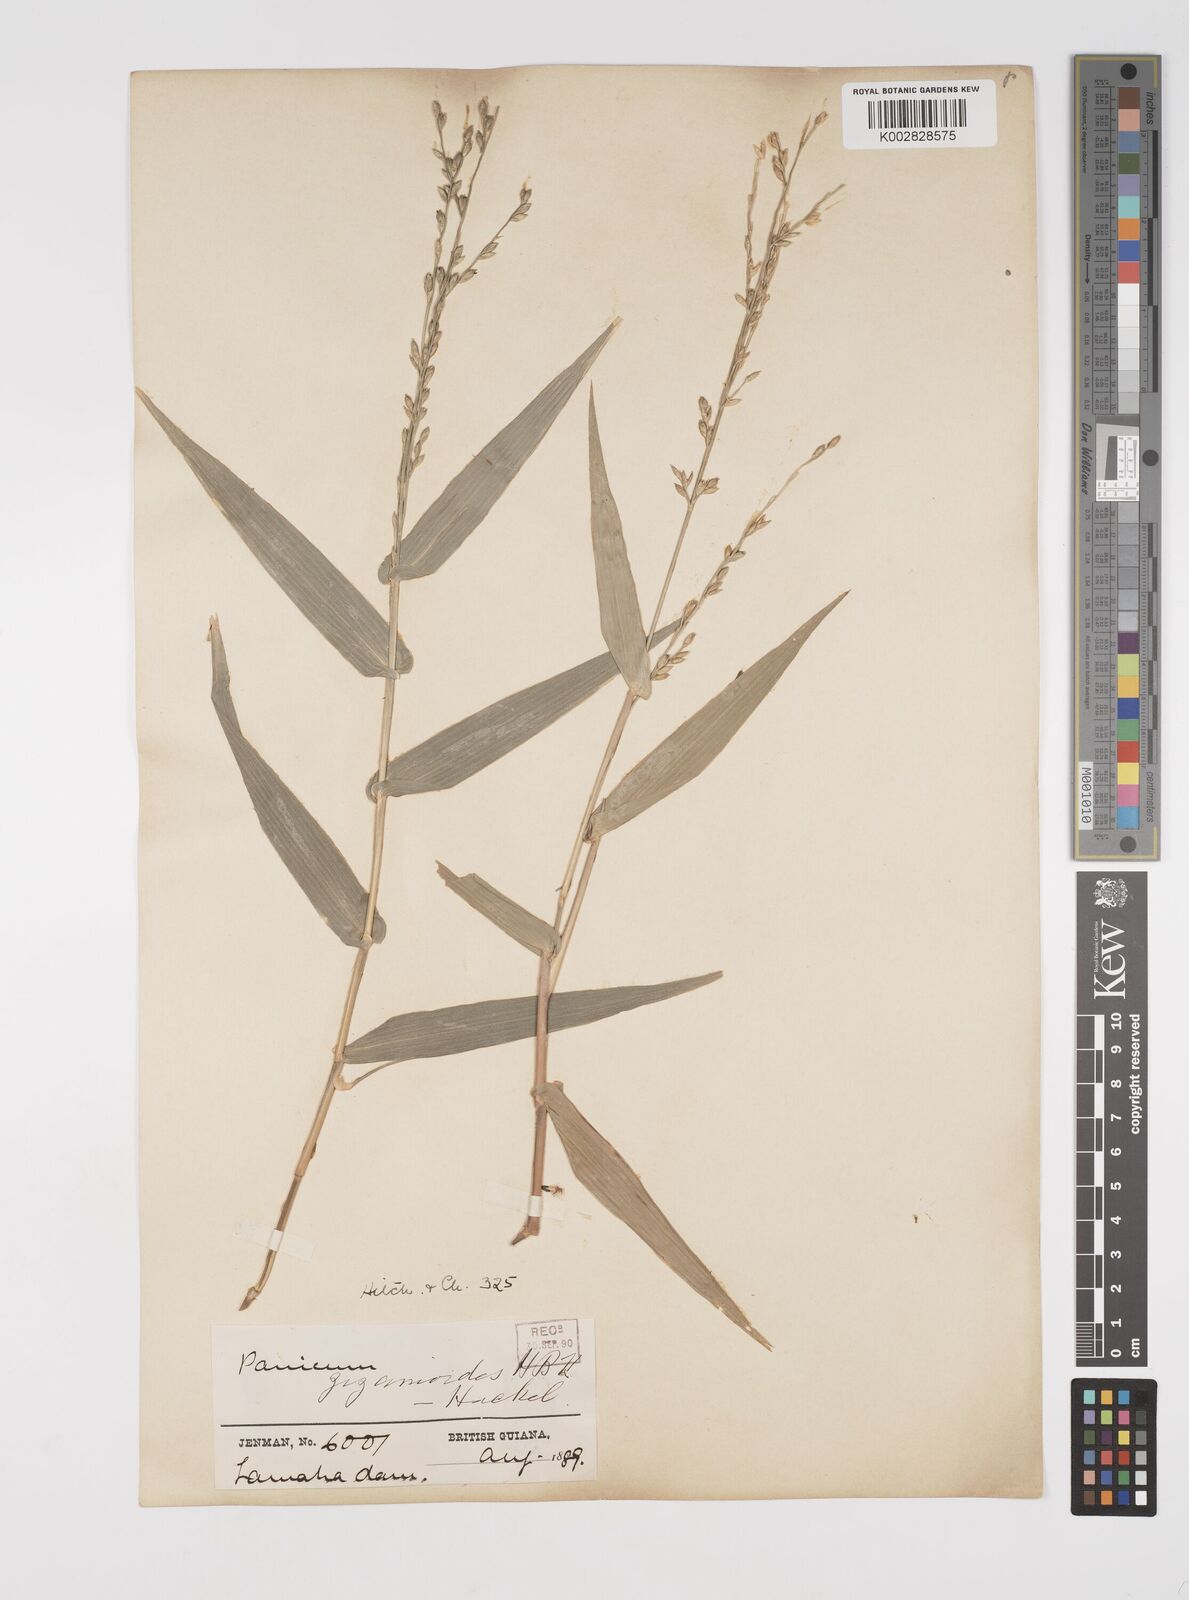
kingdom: Plantae
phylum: Tracheophyta
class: Liliopsida
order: Poales
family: Poaceae
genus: Acroceras
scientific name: Acroceras zizanioides
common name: Oat grass
